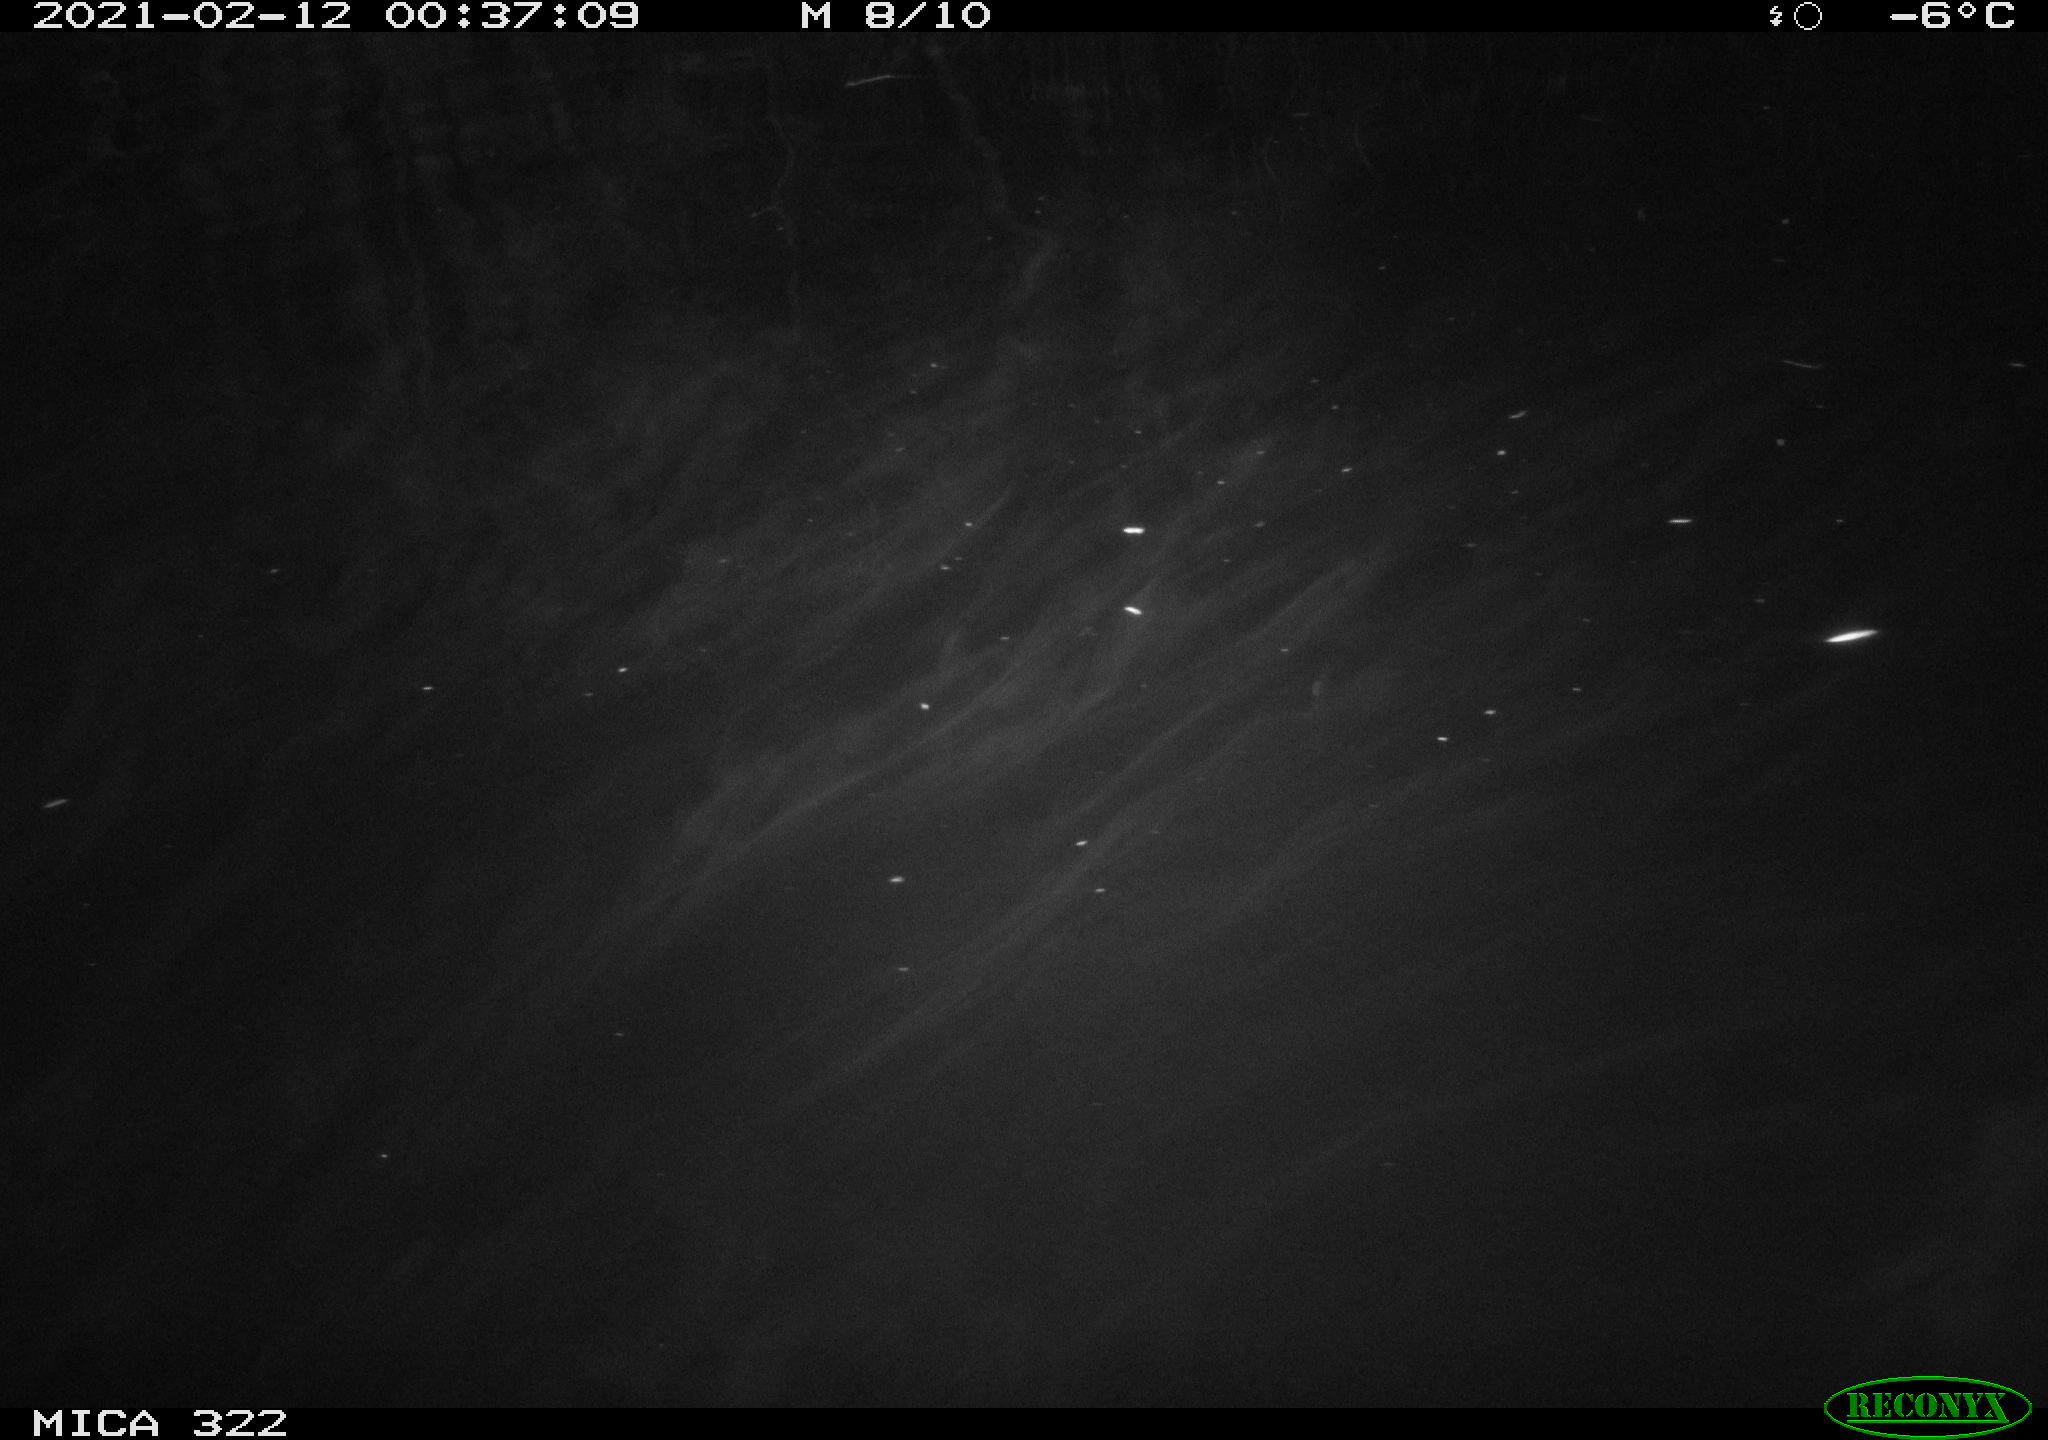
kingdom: Animalia
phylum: Chordata
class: Aves
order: Anseriformes
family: Anatidae
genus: Anas
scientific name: Anas platyrhynchos
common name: Mallard
